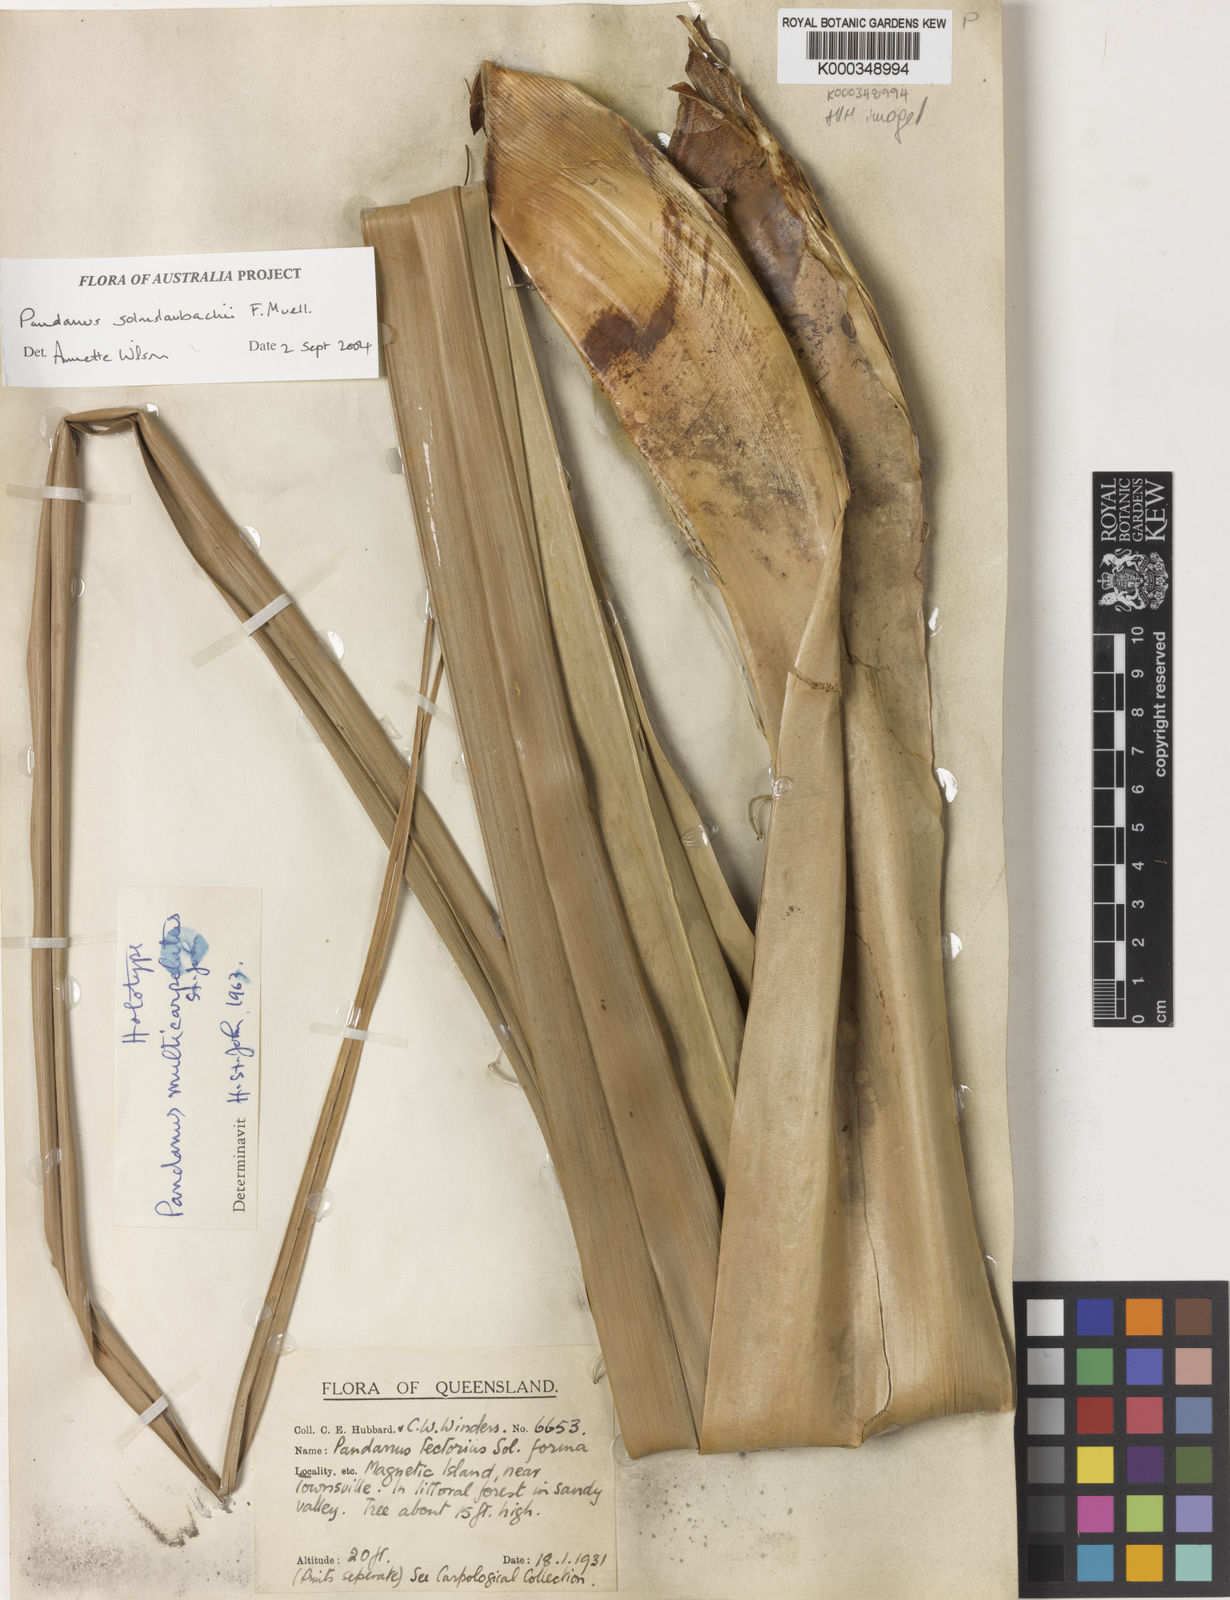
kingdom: Plantae
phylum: Tracheophyta
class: Liliopsida
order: Pandanales
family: Pandanaceae
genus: Pandanus
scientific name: Pandanus solms-laubachii
